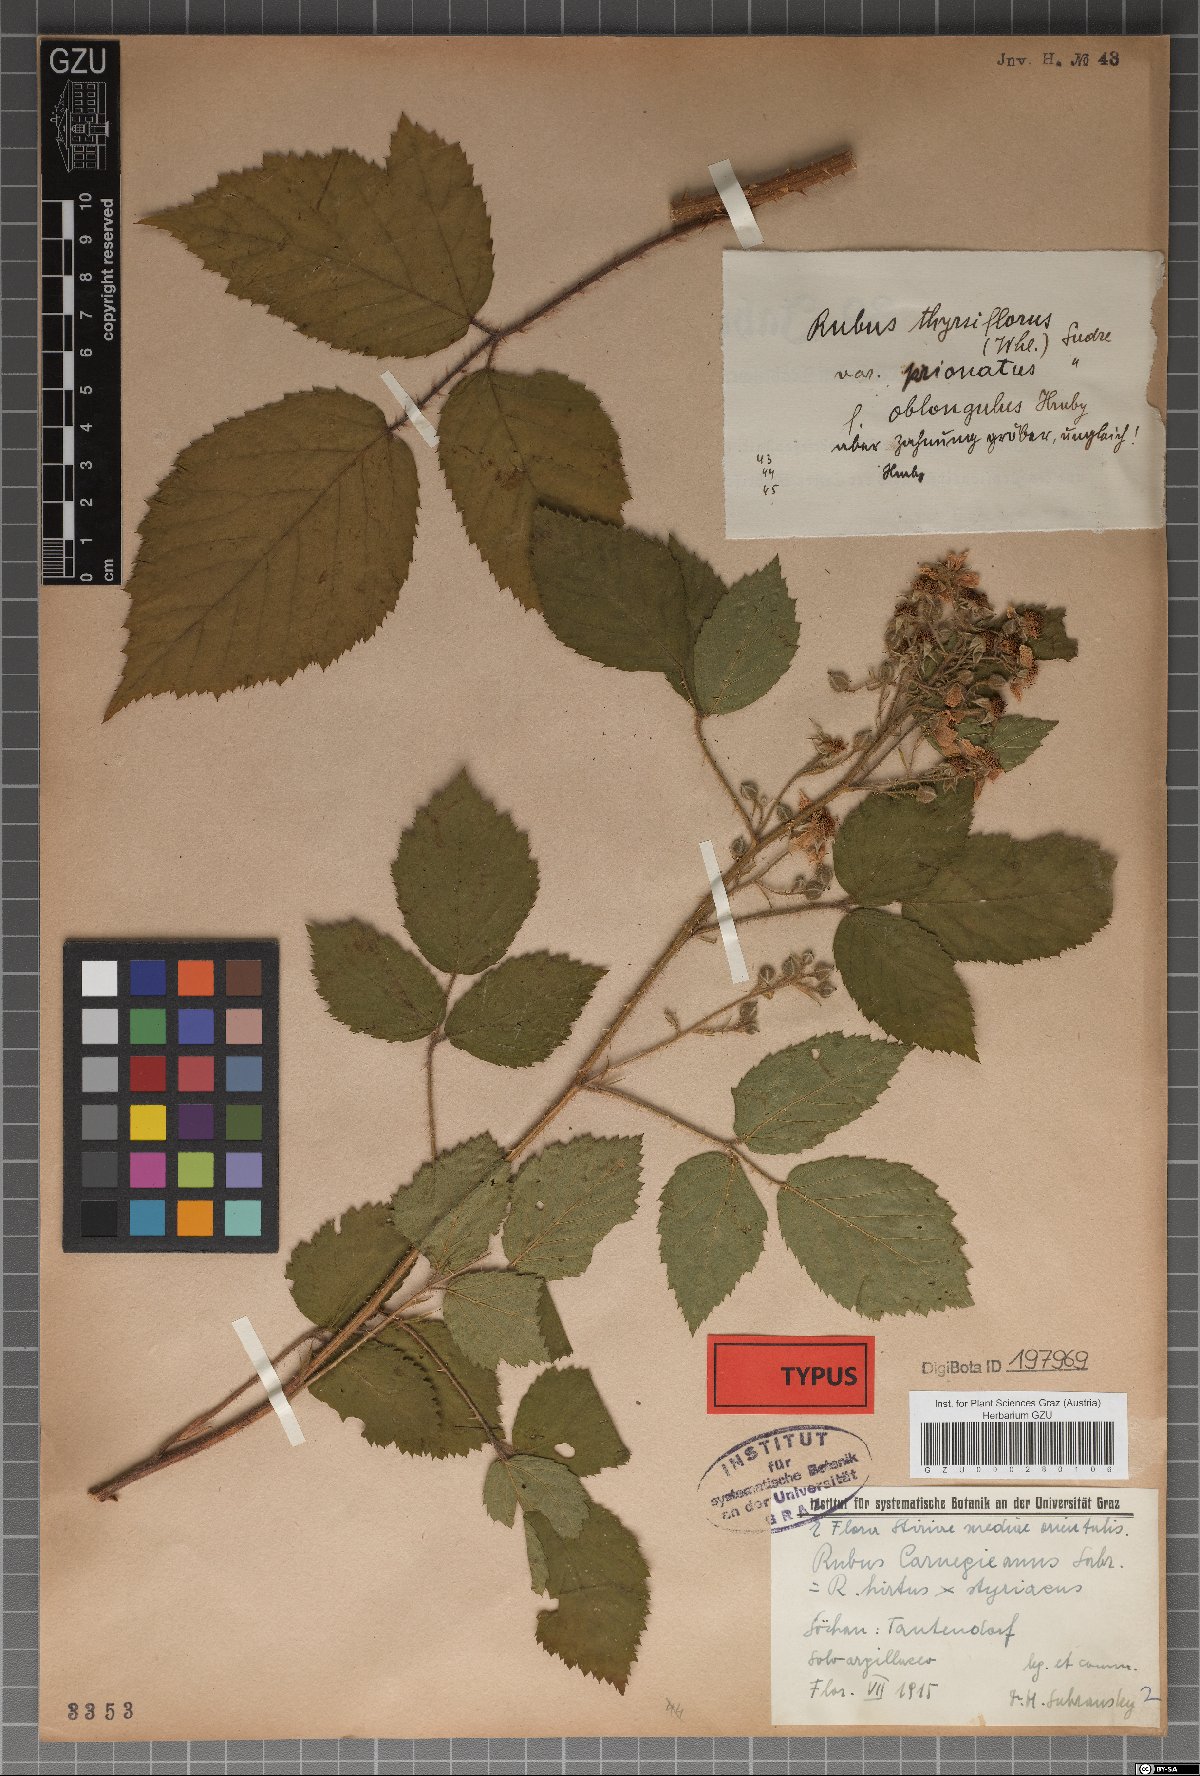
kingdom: Plantae
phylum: Tracheophyta
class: Magnoliopsida
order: Rosales
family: Rosaceae
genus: Rubus
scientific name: Rubus castoreus
